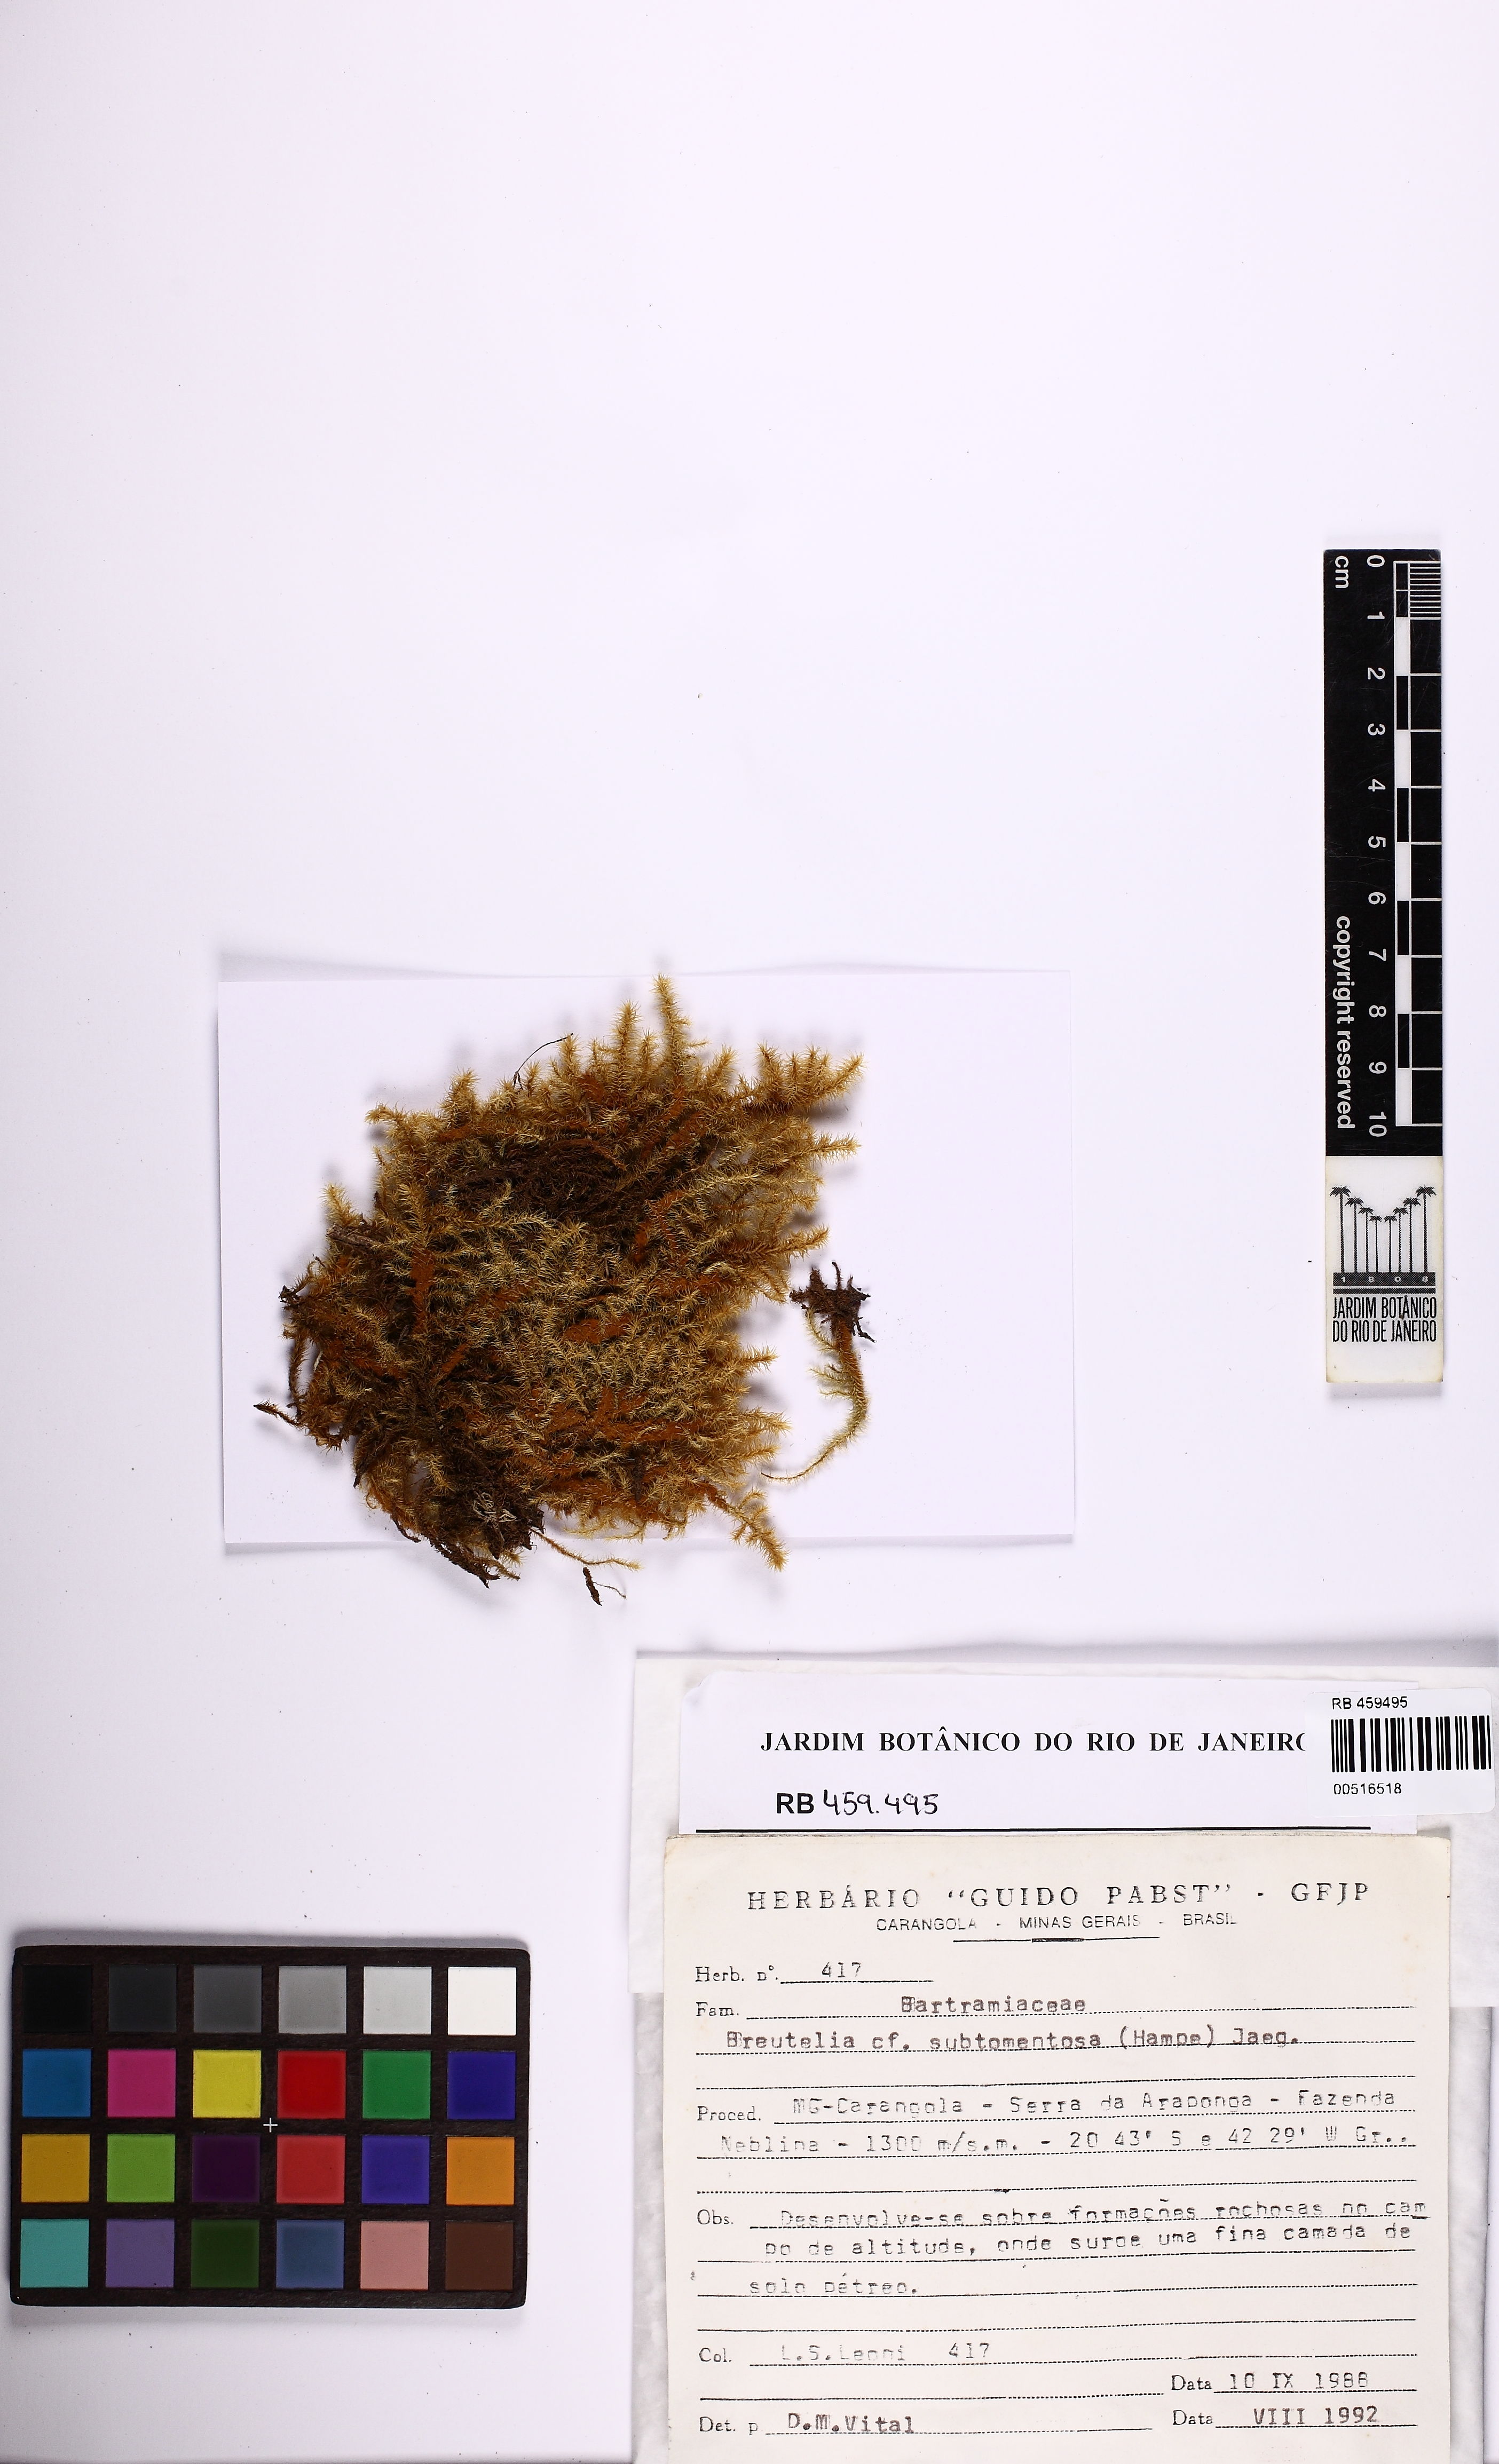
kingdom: Plantae
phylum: Bryophyta
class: Bryopsida
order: Bartramiales
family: Bartramiaceae
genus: Breutelia
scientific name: Breutelia subtomentosa
